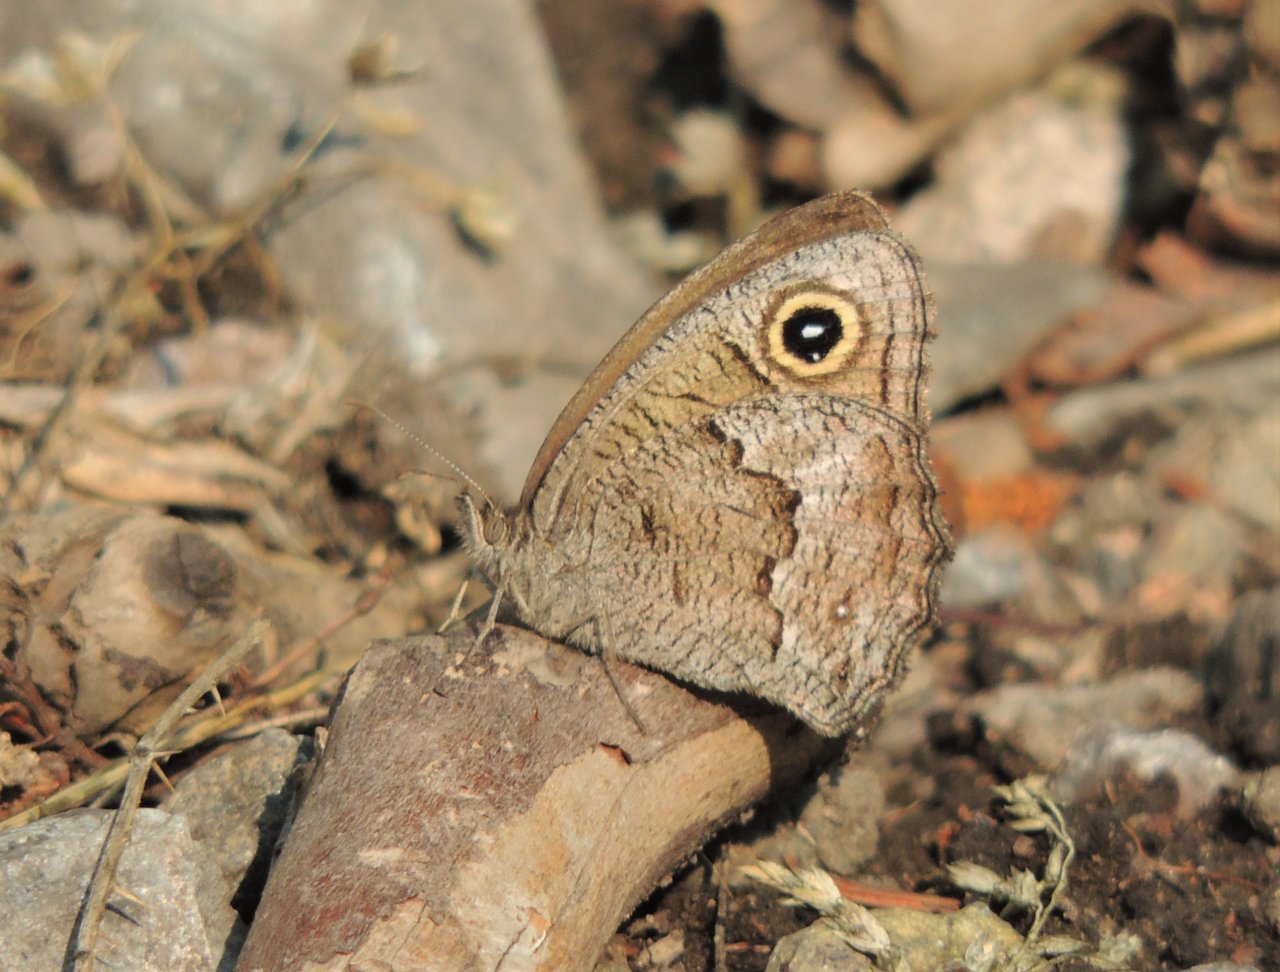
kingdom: Animalia
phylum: Arthropoda
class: Insecta
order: Lepidoptera
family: Nymphalidae
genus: Cercyonis
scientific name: Cercyonis pegala
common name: Common Wood-Nymph
